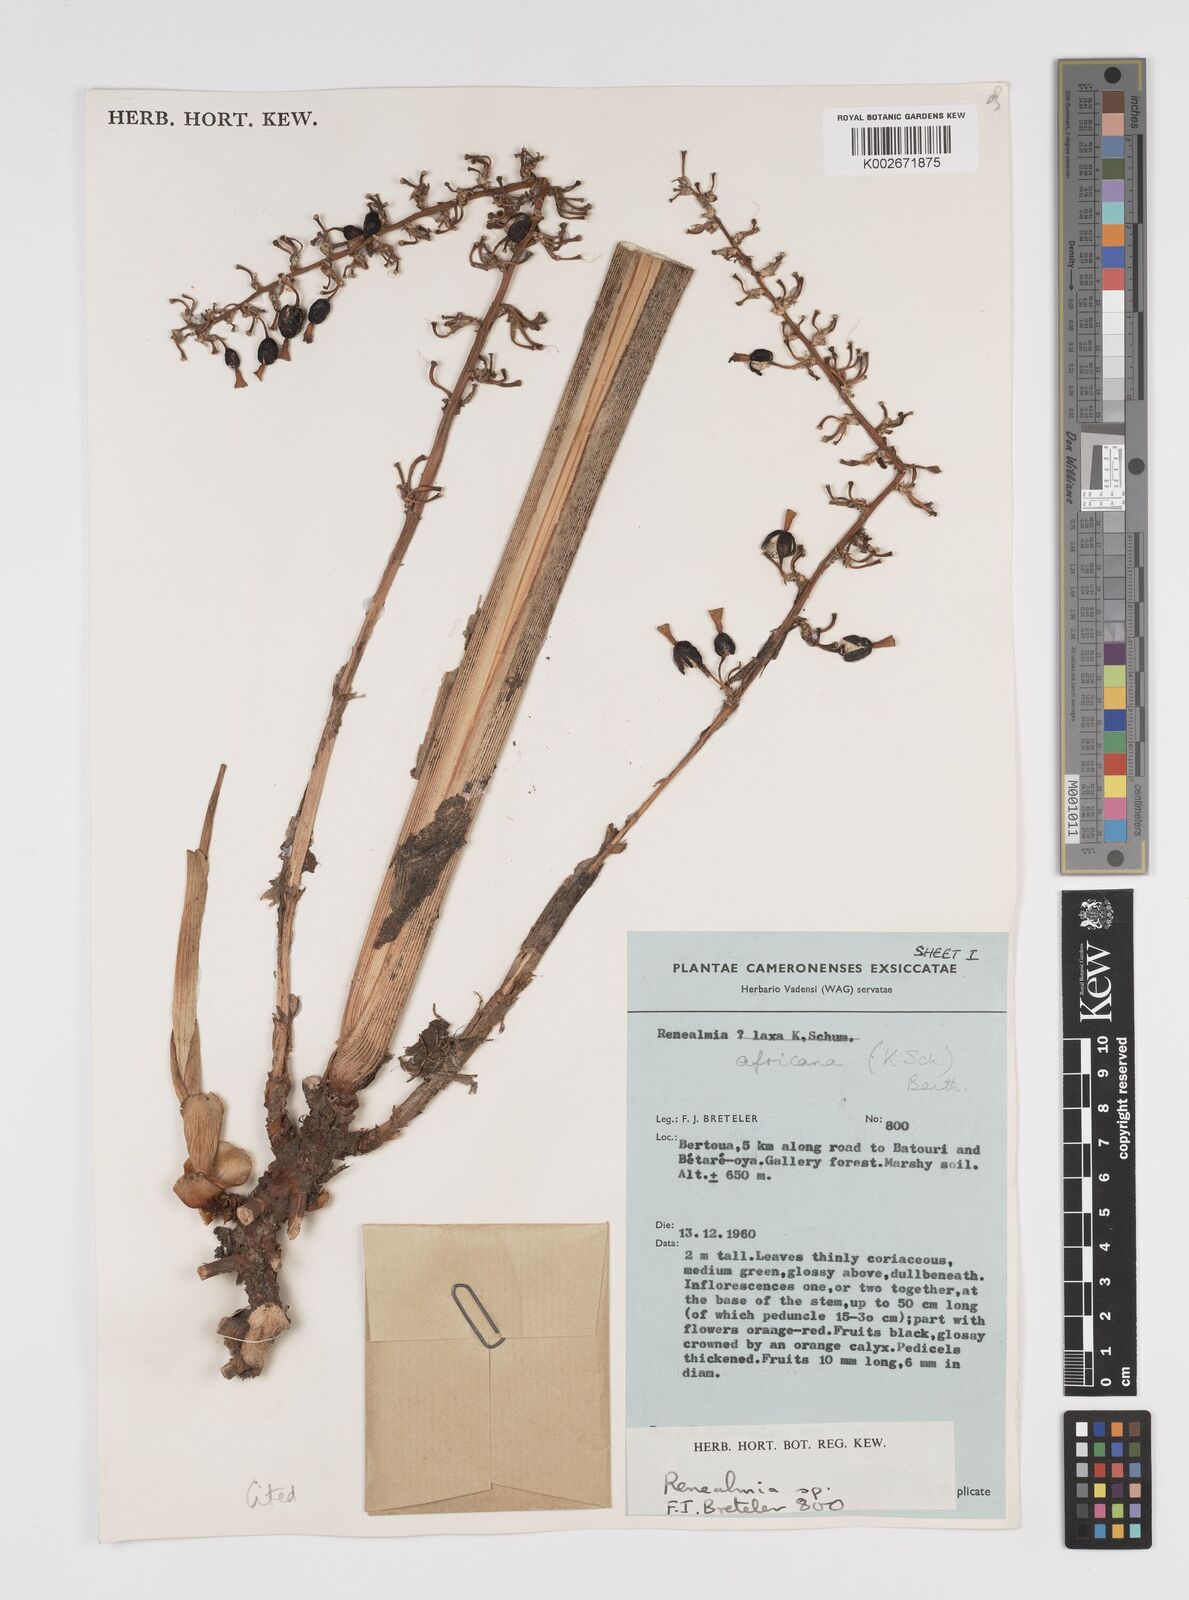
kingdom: Plantae
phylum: Tracheophyta
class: Liliopsida
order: Zingiberales
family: Zingiberaceae
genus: Renealmia
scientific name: Renealmia africana
